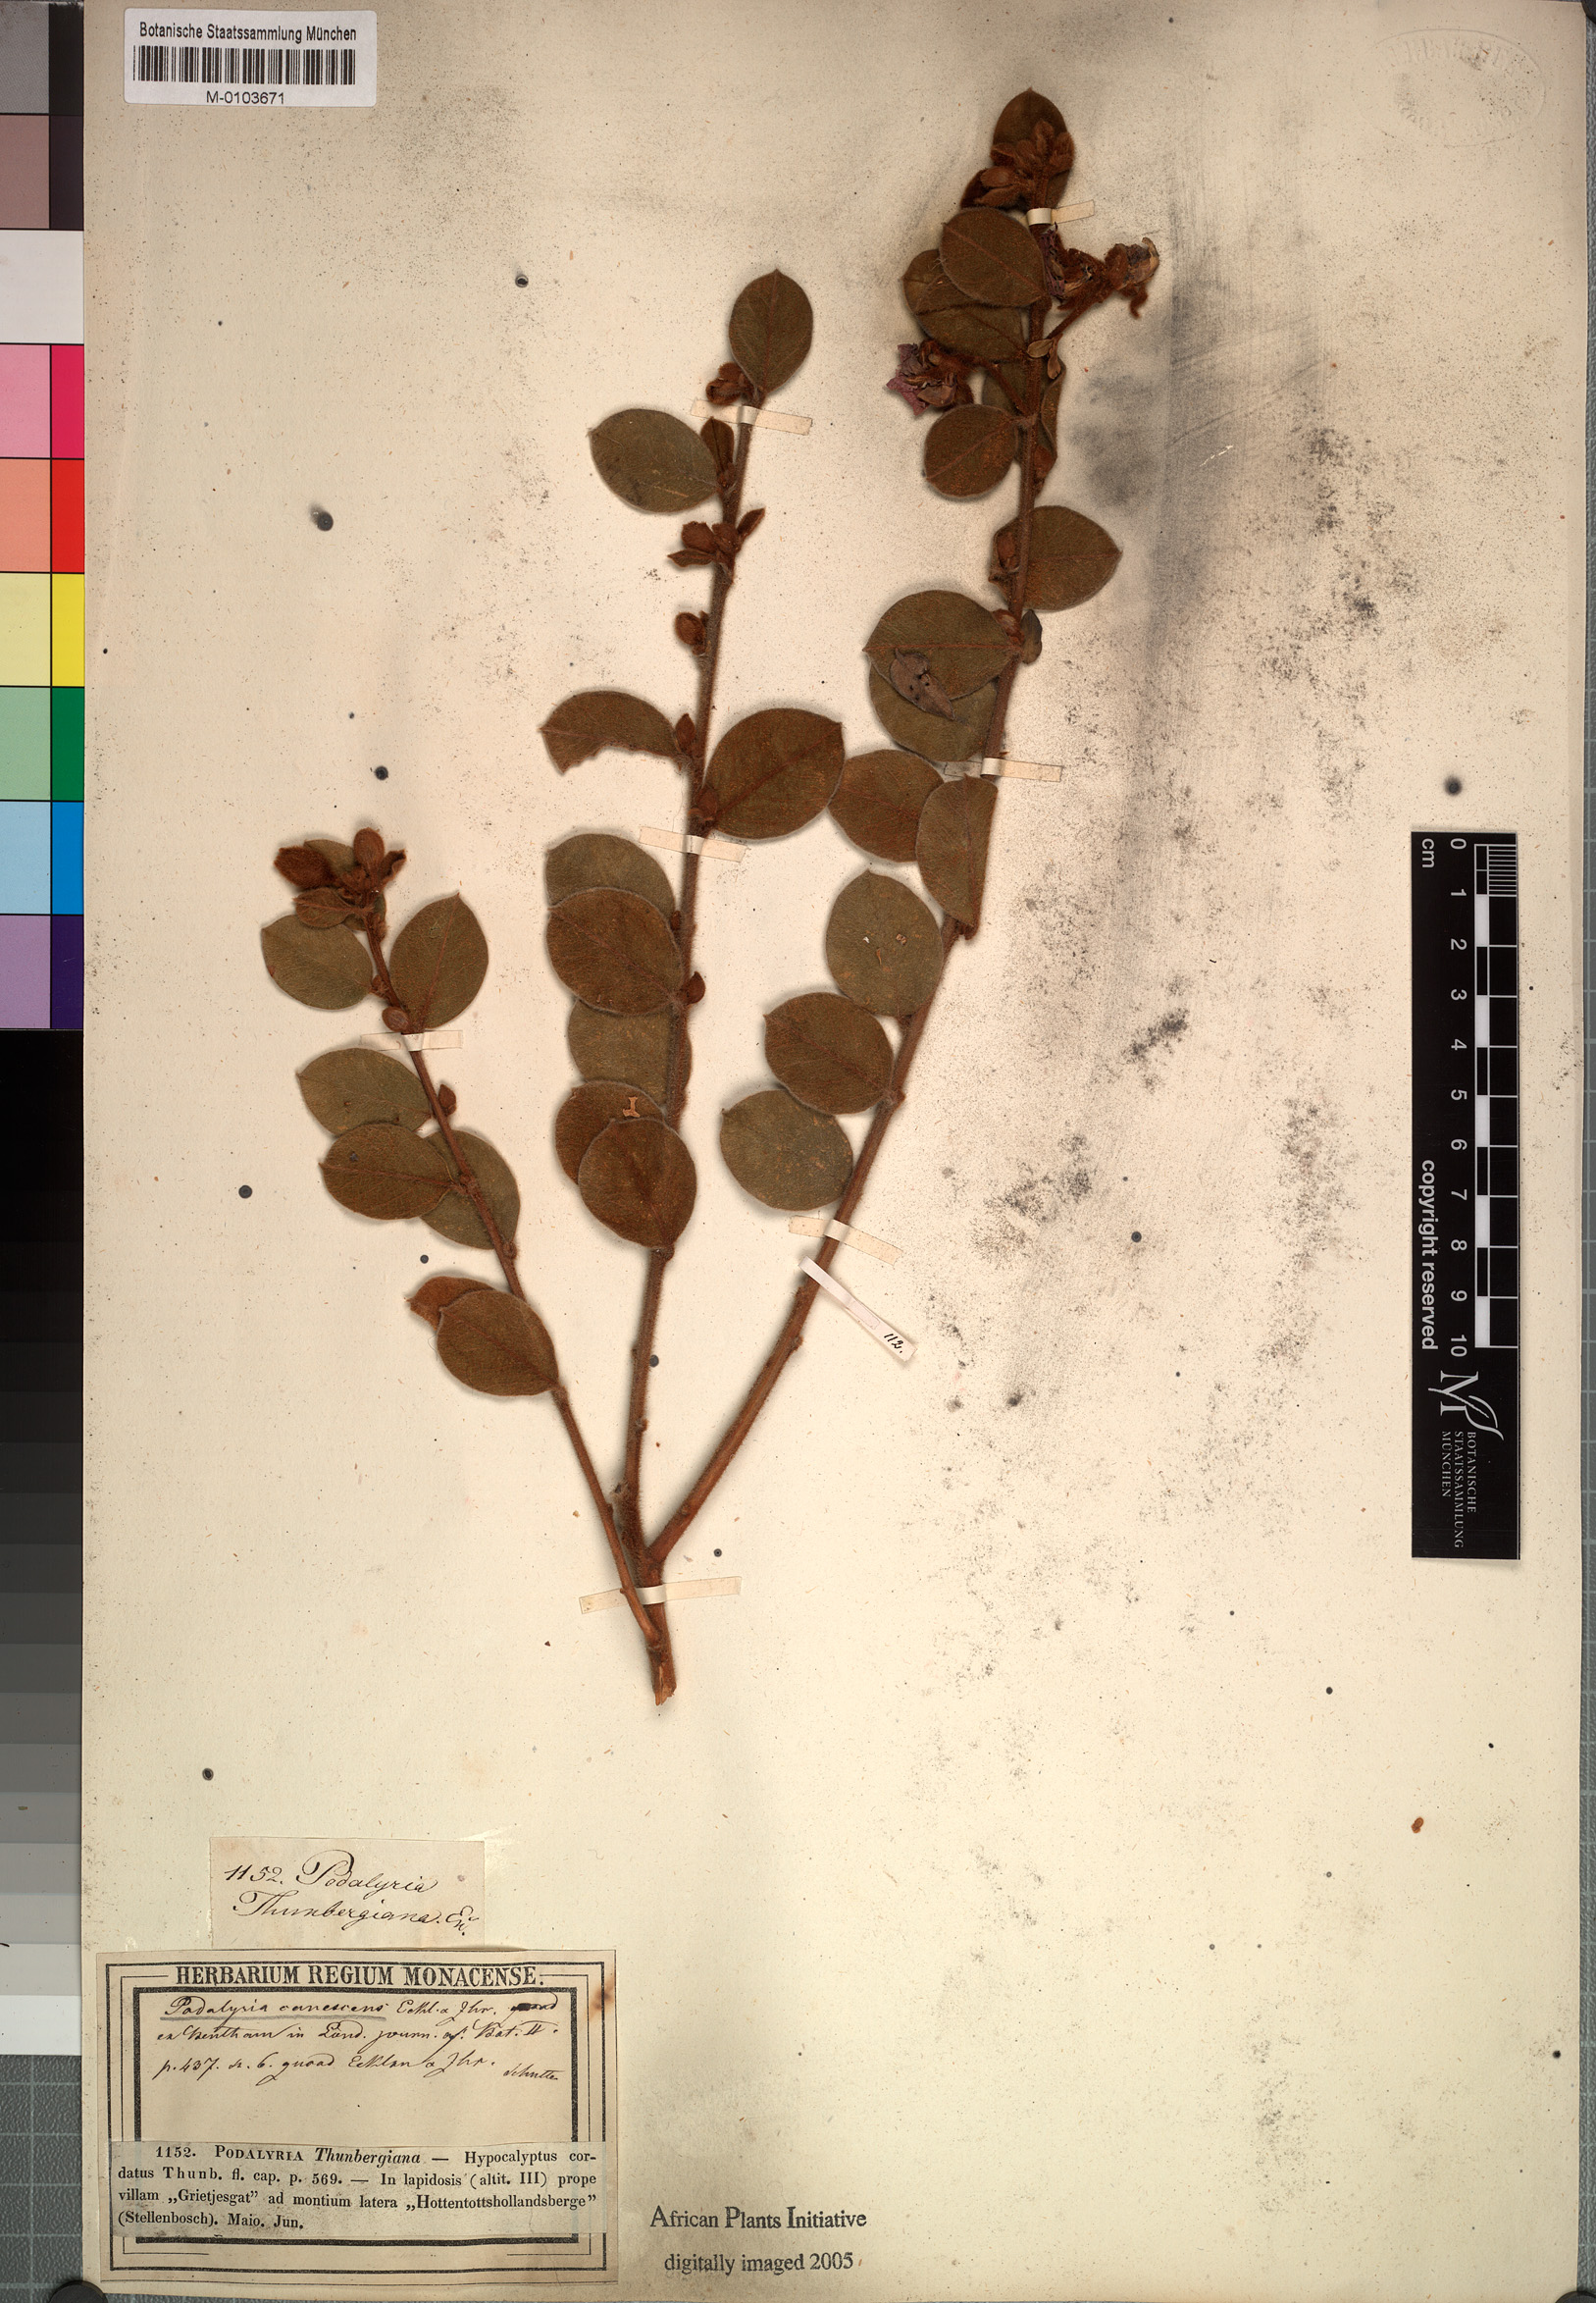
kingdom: Plantae
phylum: Tracheophyta
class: Magnoliopsida
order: Fabales
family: Fabaceae
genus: Xiphotheca
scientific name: Xiphotheca canescens
